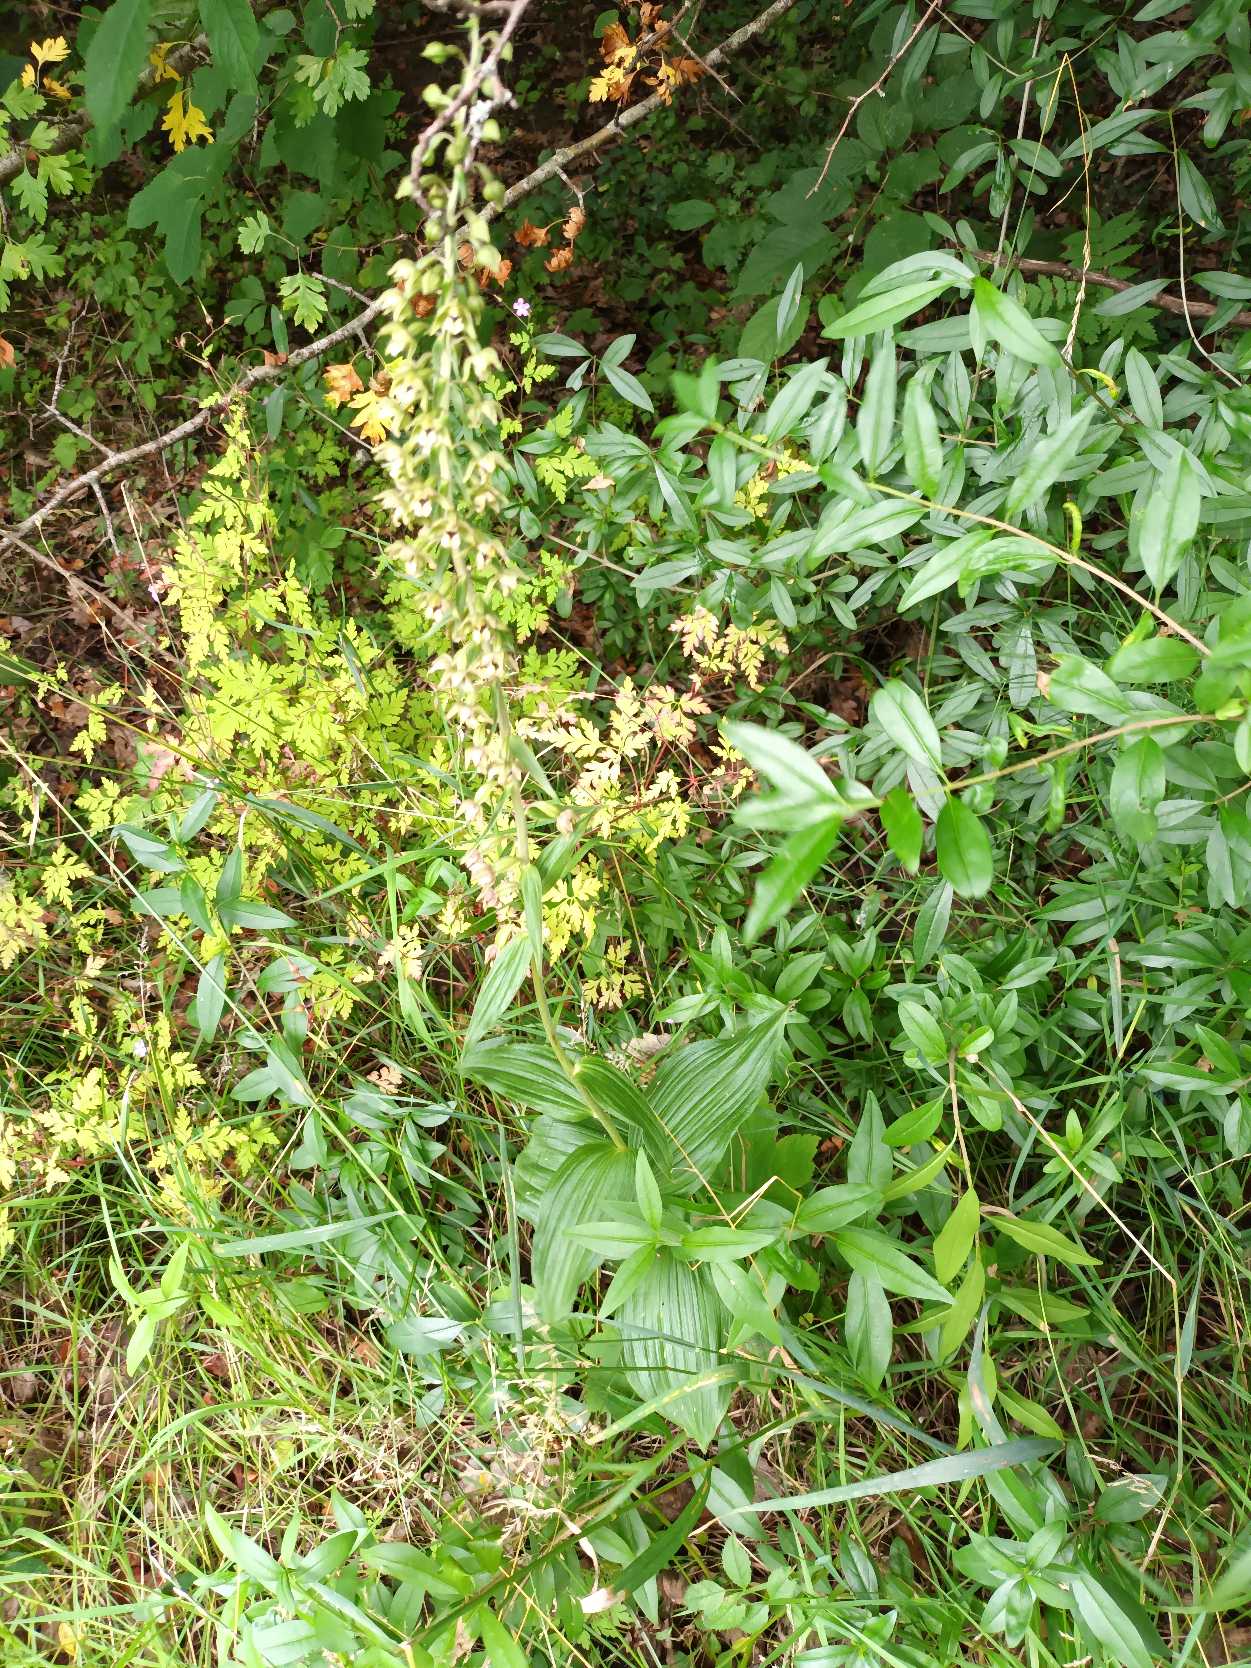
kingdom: Plantae
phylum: Tracheophyta
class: Liliopsida
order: Asparagales
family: Orchidaceae
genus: Epipactis
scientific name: Epipactis helleborine
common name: Skov-hullæbe
